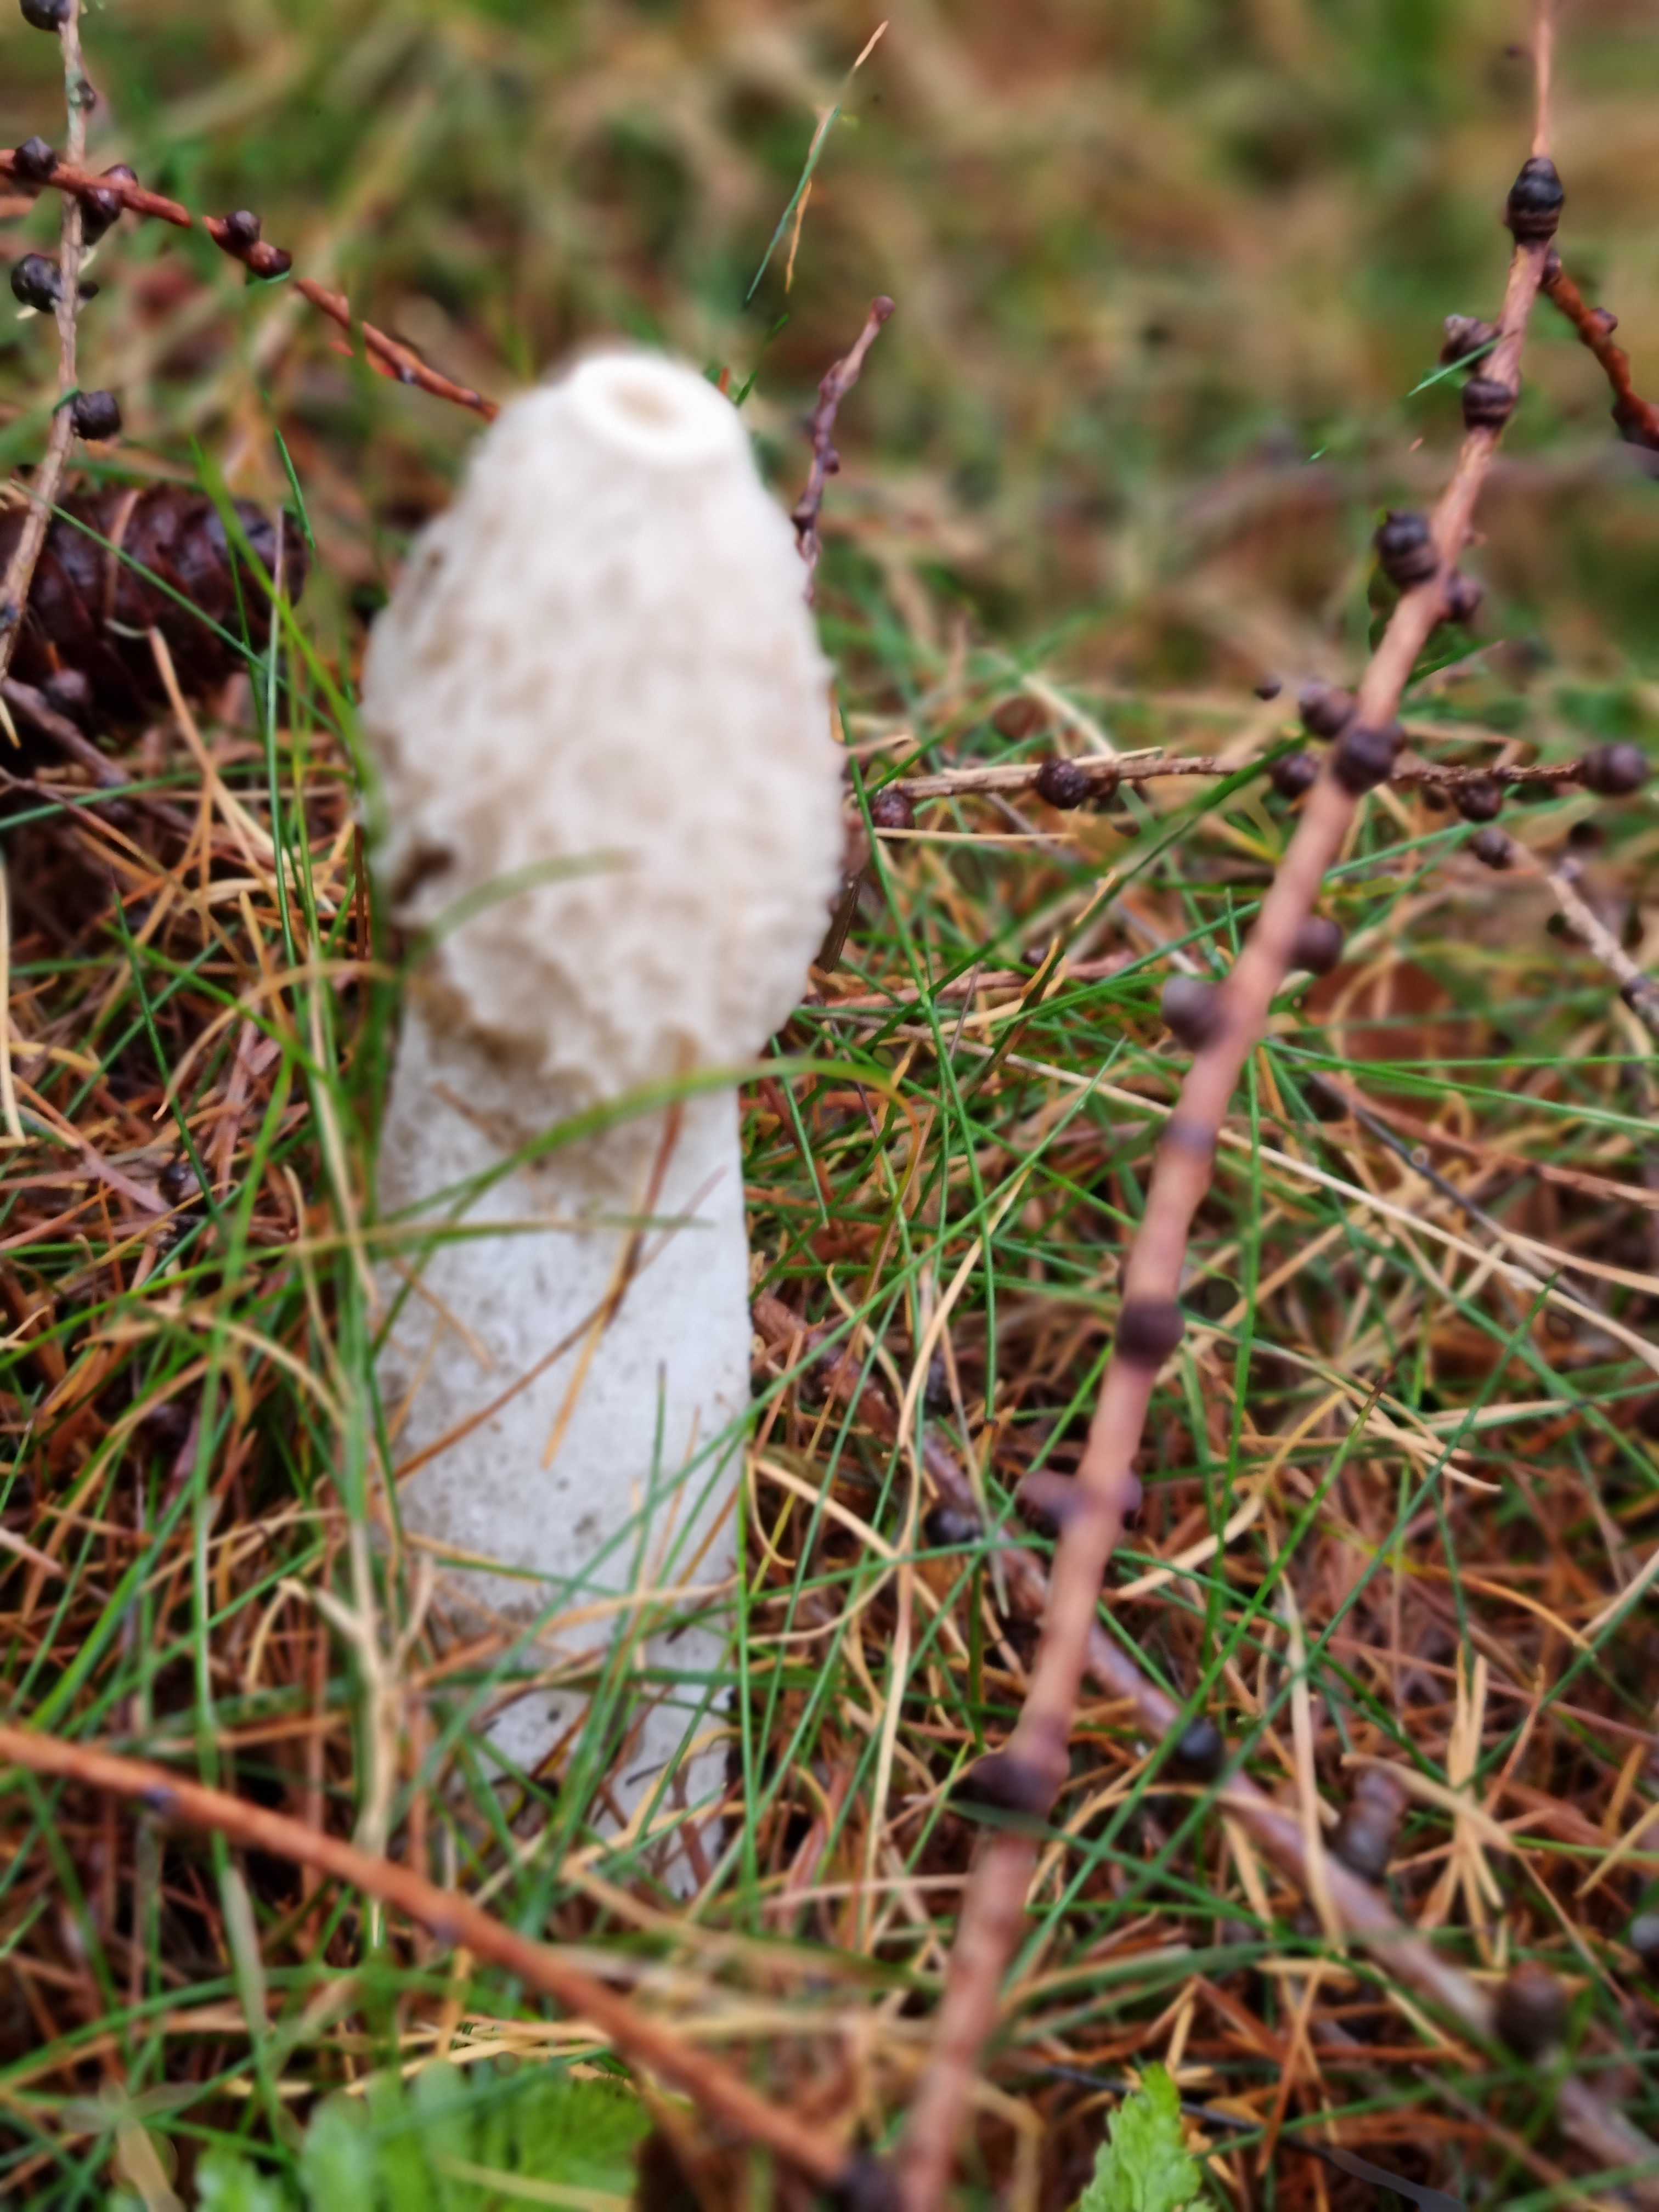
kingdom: Fungi
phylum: Basidiomycota
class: Agaricomycetes
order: Phallales
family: Phallaceae
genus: Phallus
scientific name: Phallus impudicus
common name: almindelig stinksvamp
